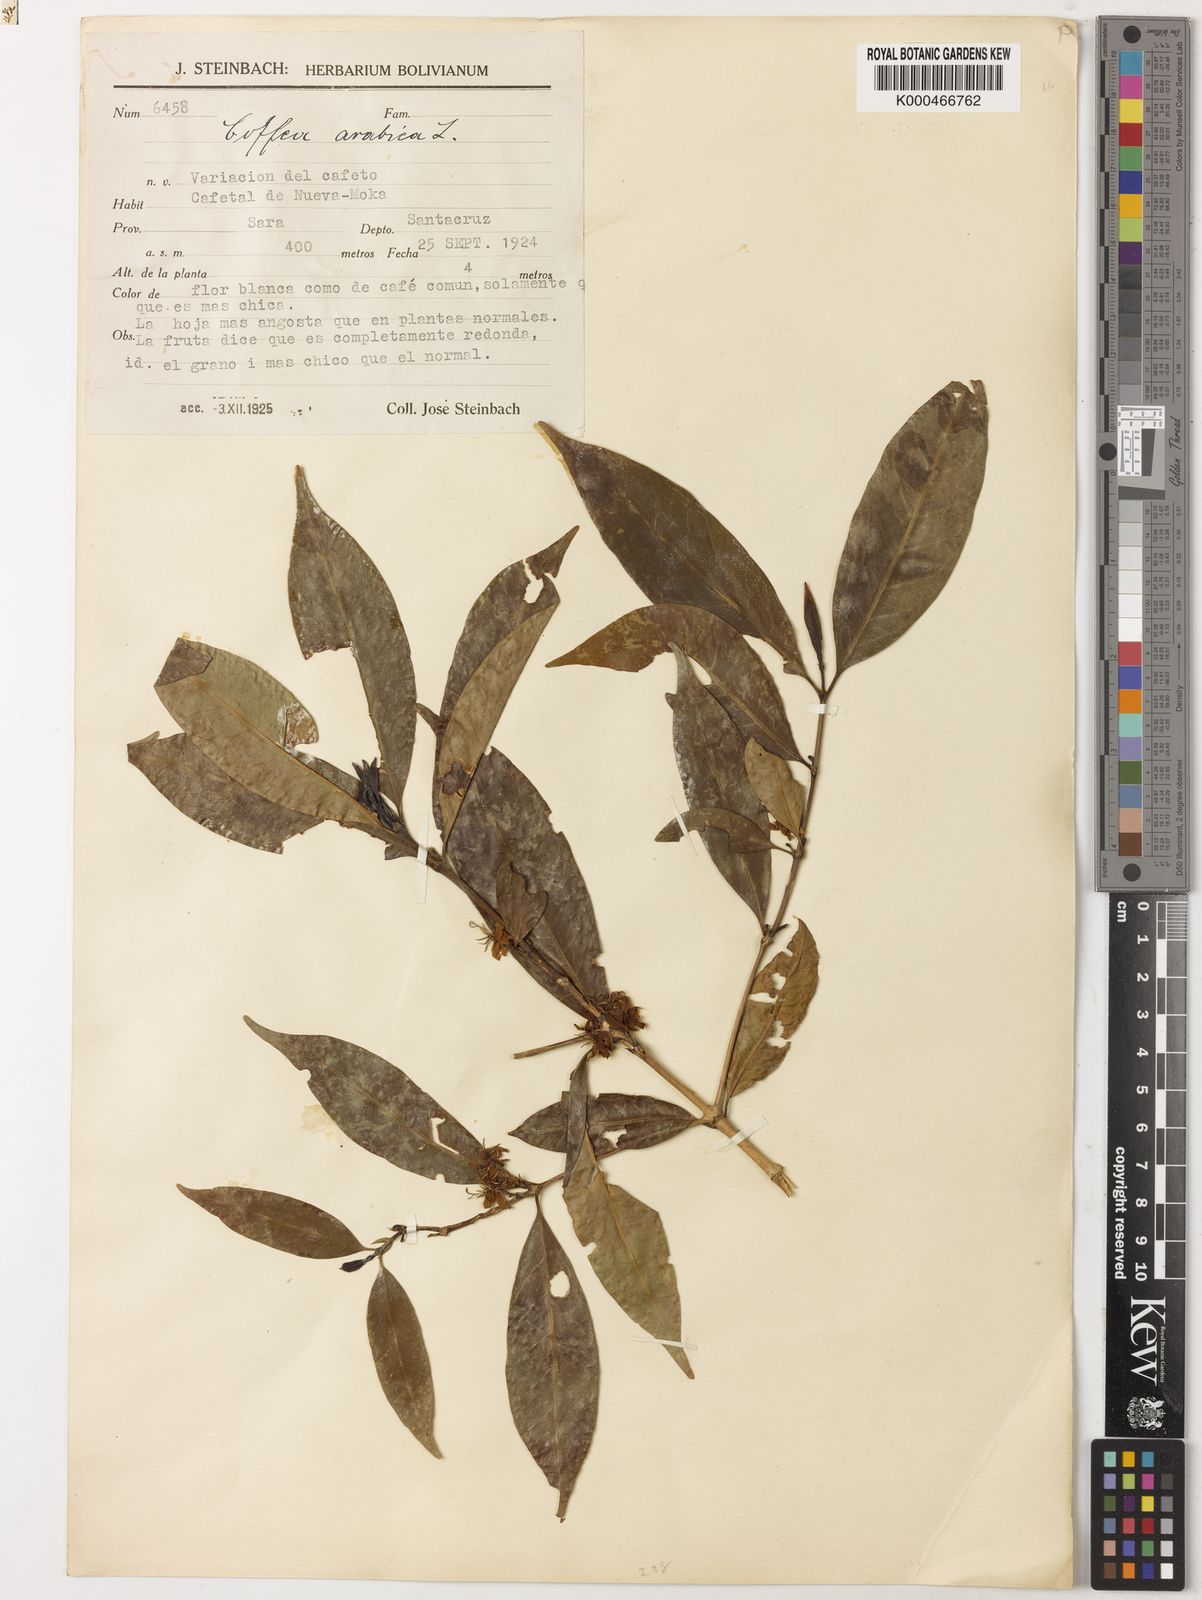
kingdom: Plantae
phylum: Tracheophyta
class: Magnoliopsida
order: Gentianales
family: Rubiaceae
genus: Coffea
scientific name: Coffea arabica
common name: Coffee
